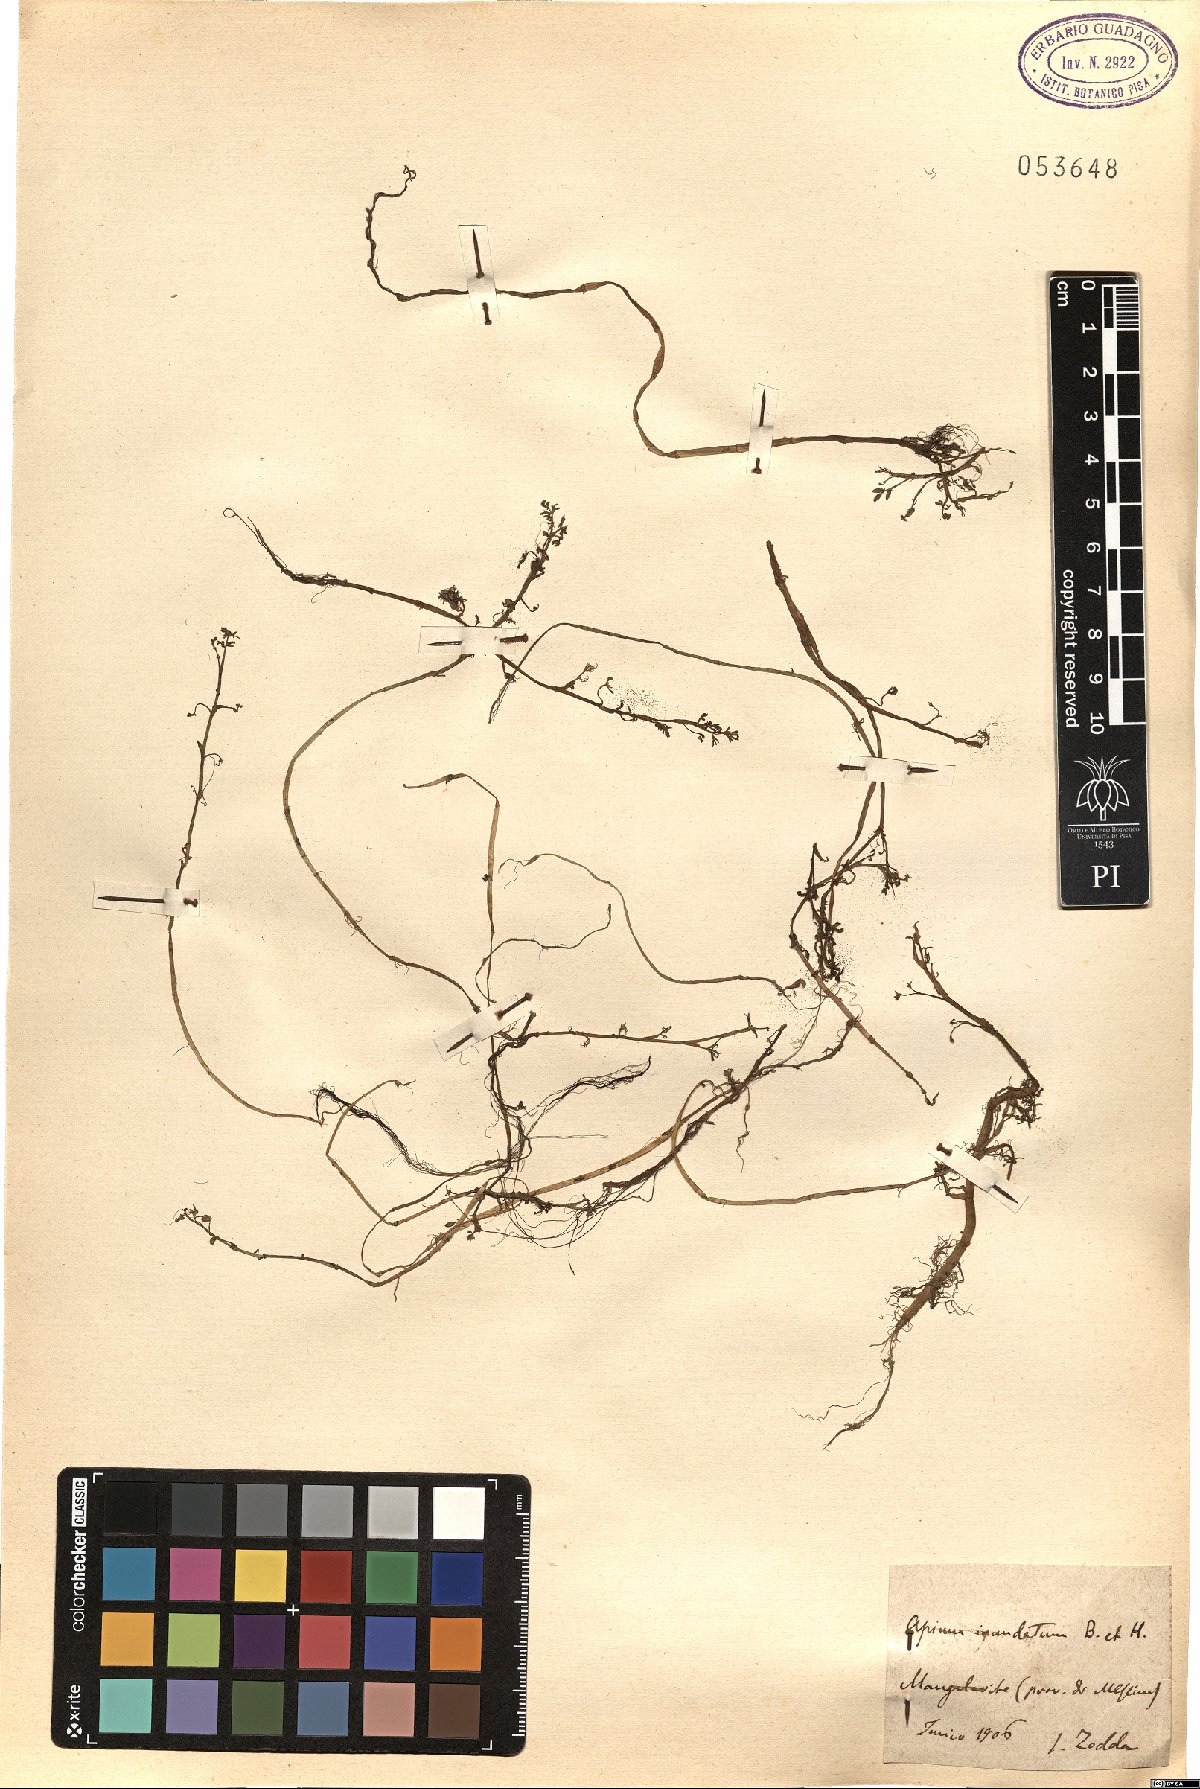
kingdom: Plantae
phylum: Tracheophyta
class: Magnoliopsida
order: Apiales
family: Apiaceae
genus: Helosciadium
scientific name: Helosciadium inundatum
